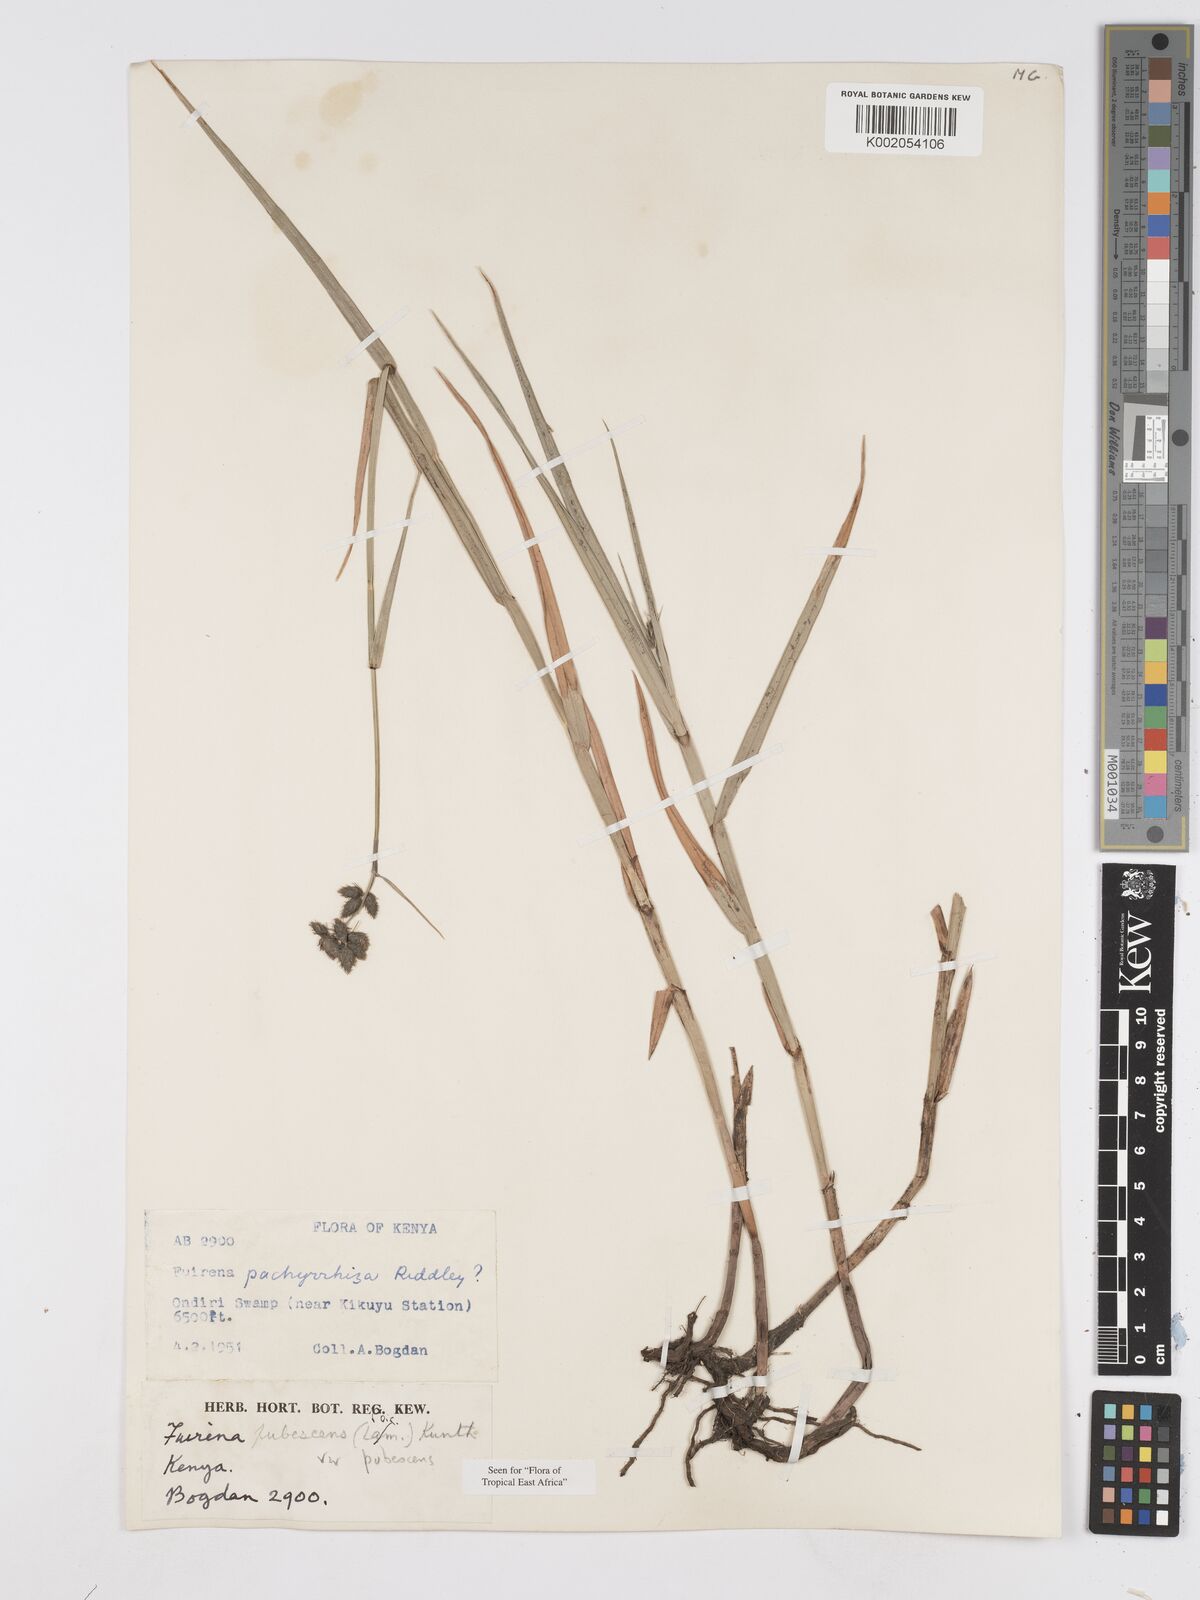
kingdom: Plantae
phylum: Tracheophyta
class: Liliopsida
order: Poales
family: Cyperaceae
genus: Fuirena
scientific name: Fuirena pubescens
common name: Hairy sedge
